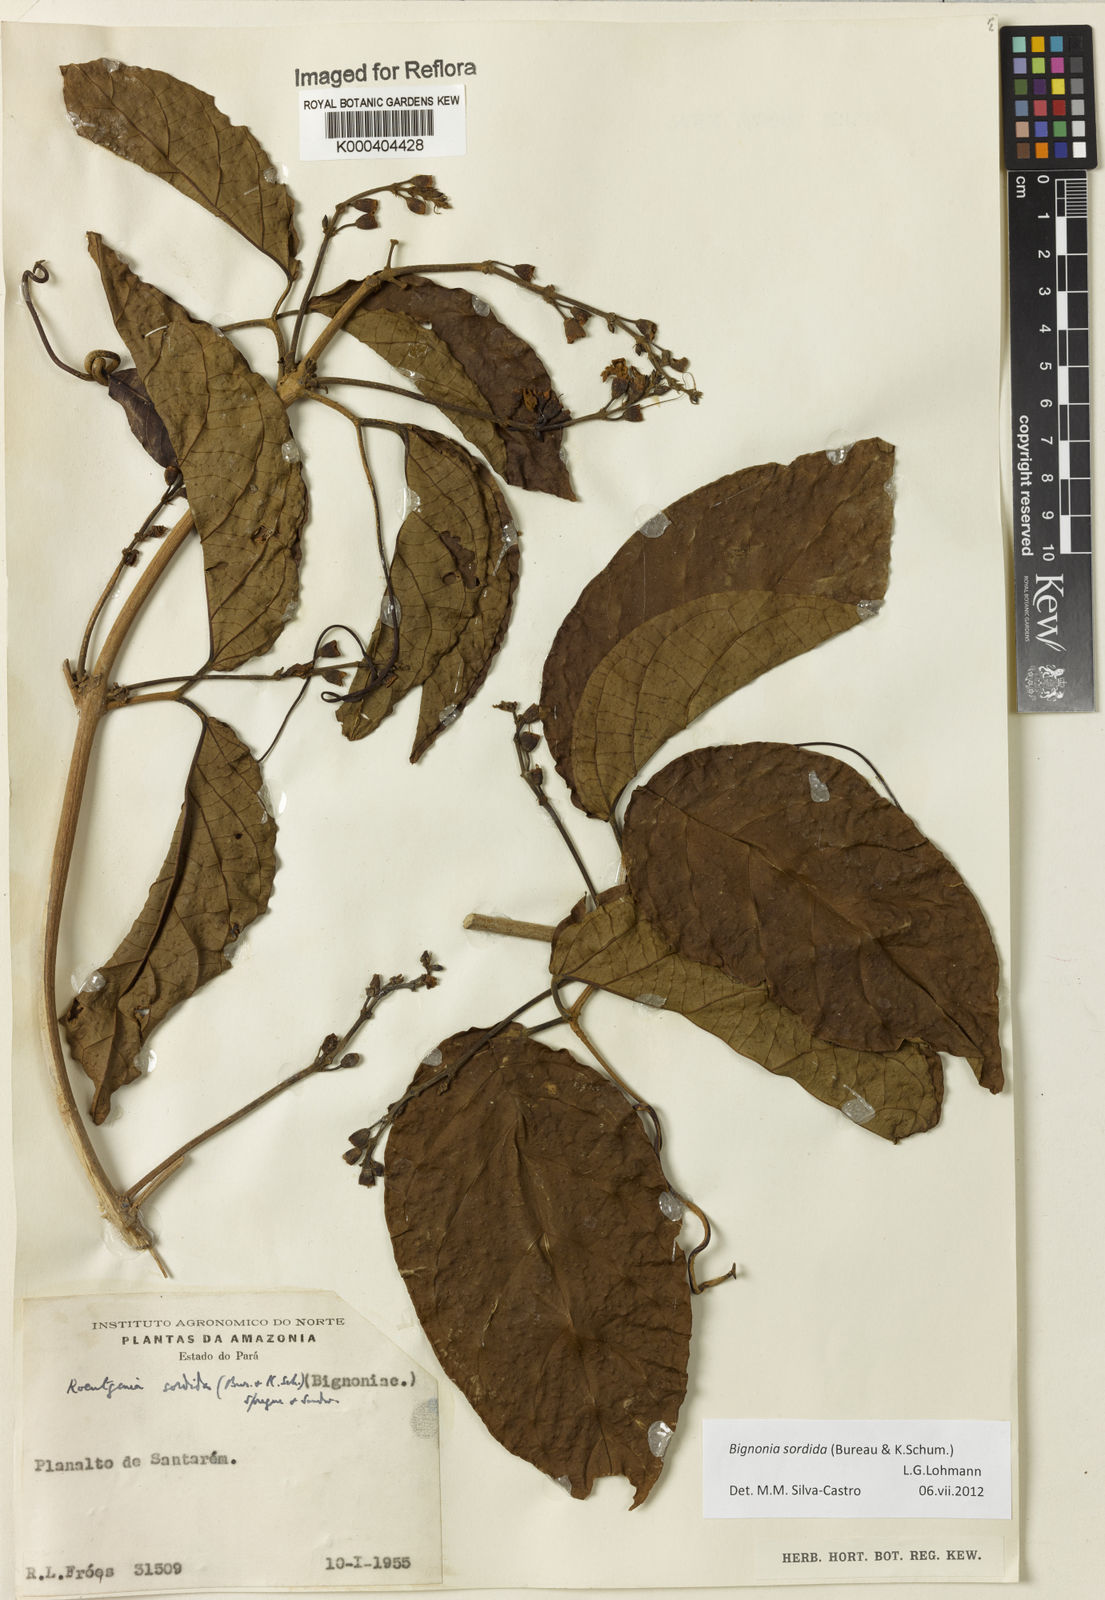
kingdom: Plantae
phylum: Tracheophyta
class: Magnoliopsida
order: Lamiales
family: Bignoniaceae
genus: Bignonia
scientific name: Bignonia sordida
